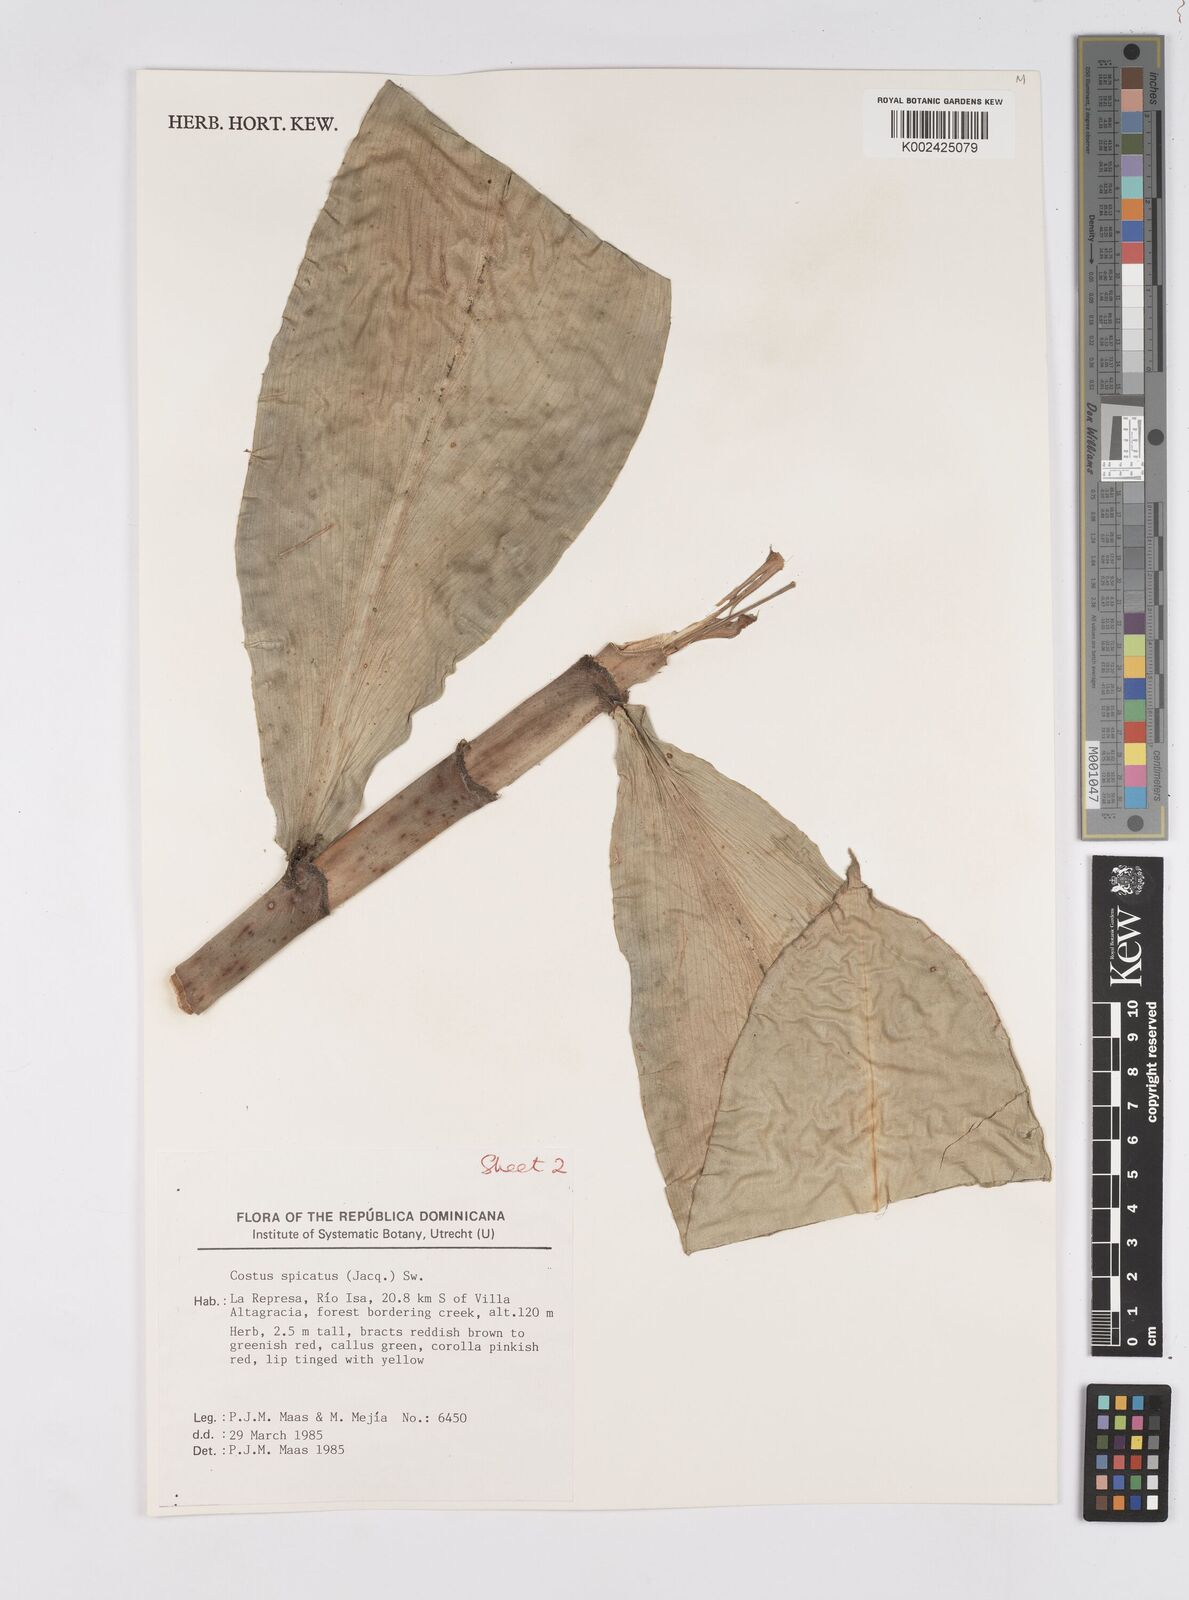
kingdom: Plantae
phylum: Tracheophyta
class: Liliopsida
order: Zingiberales
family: Costaceae
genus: Costus
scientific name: Costus spicatus
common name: Spiked spiral-flag
